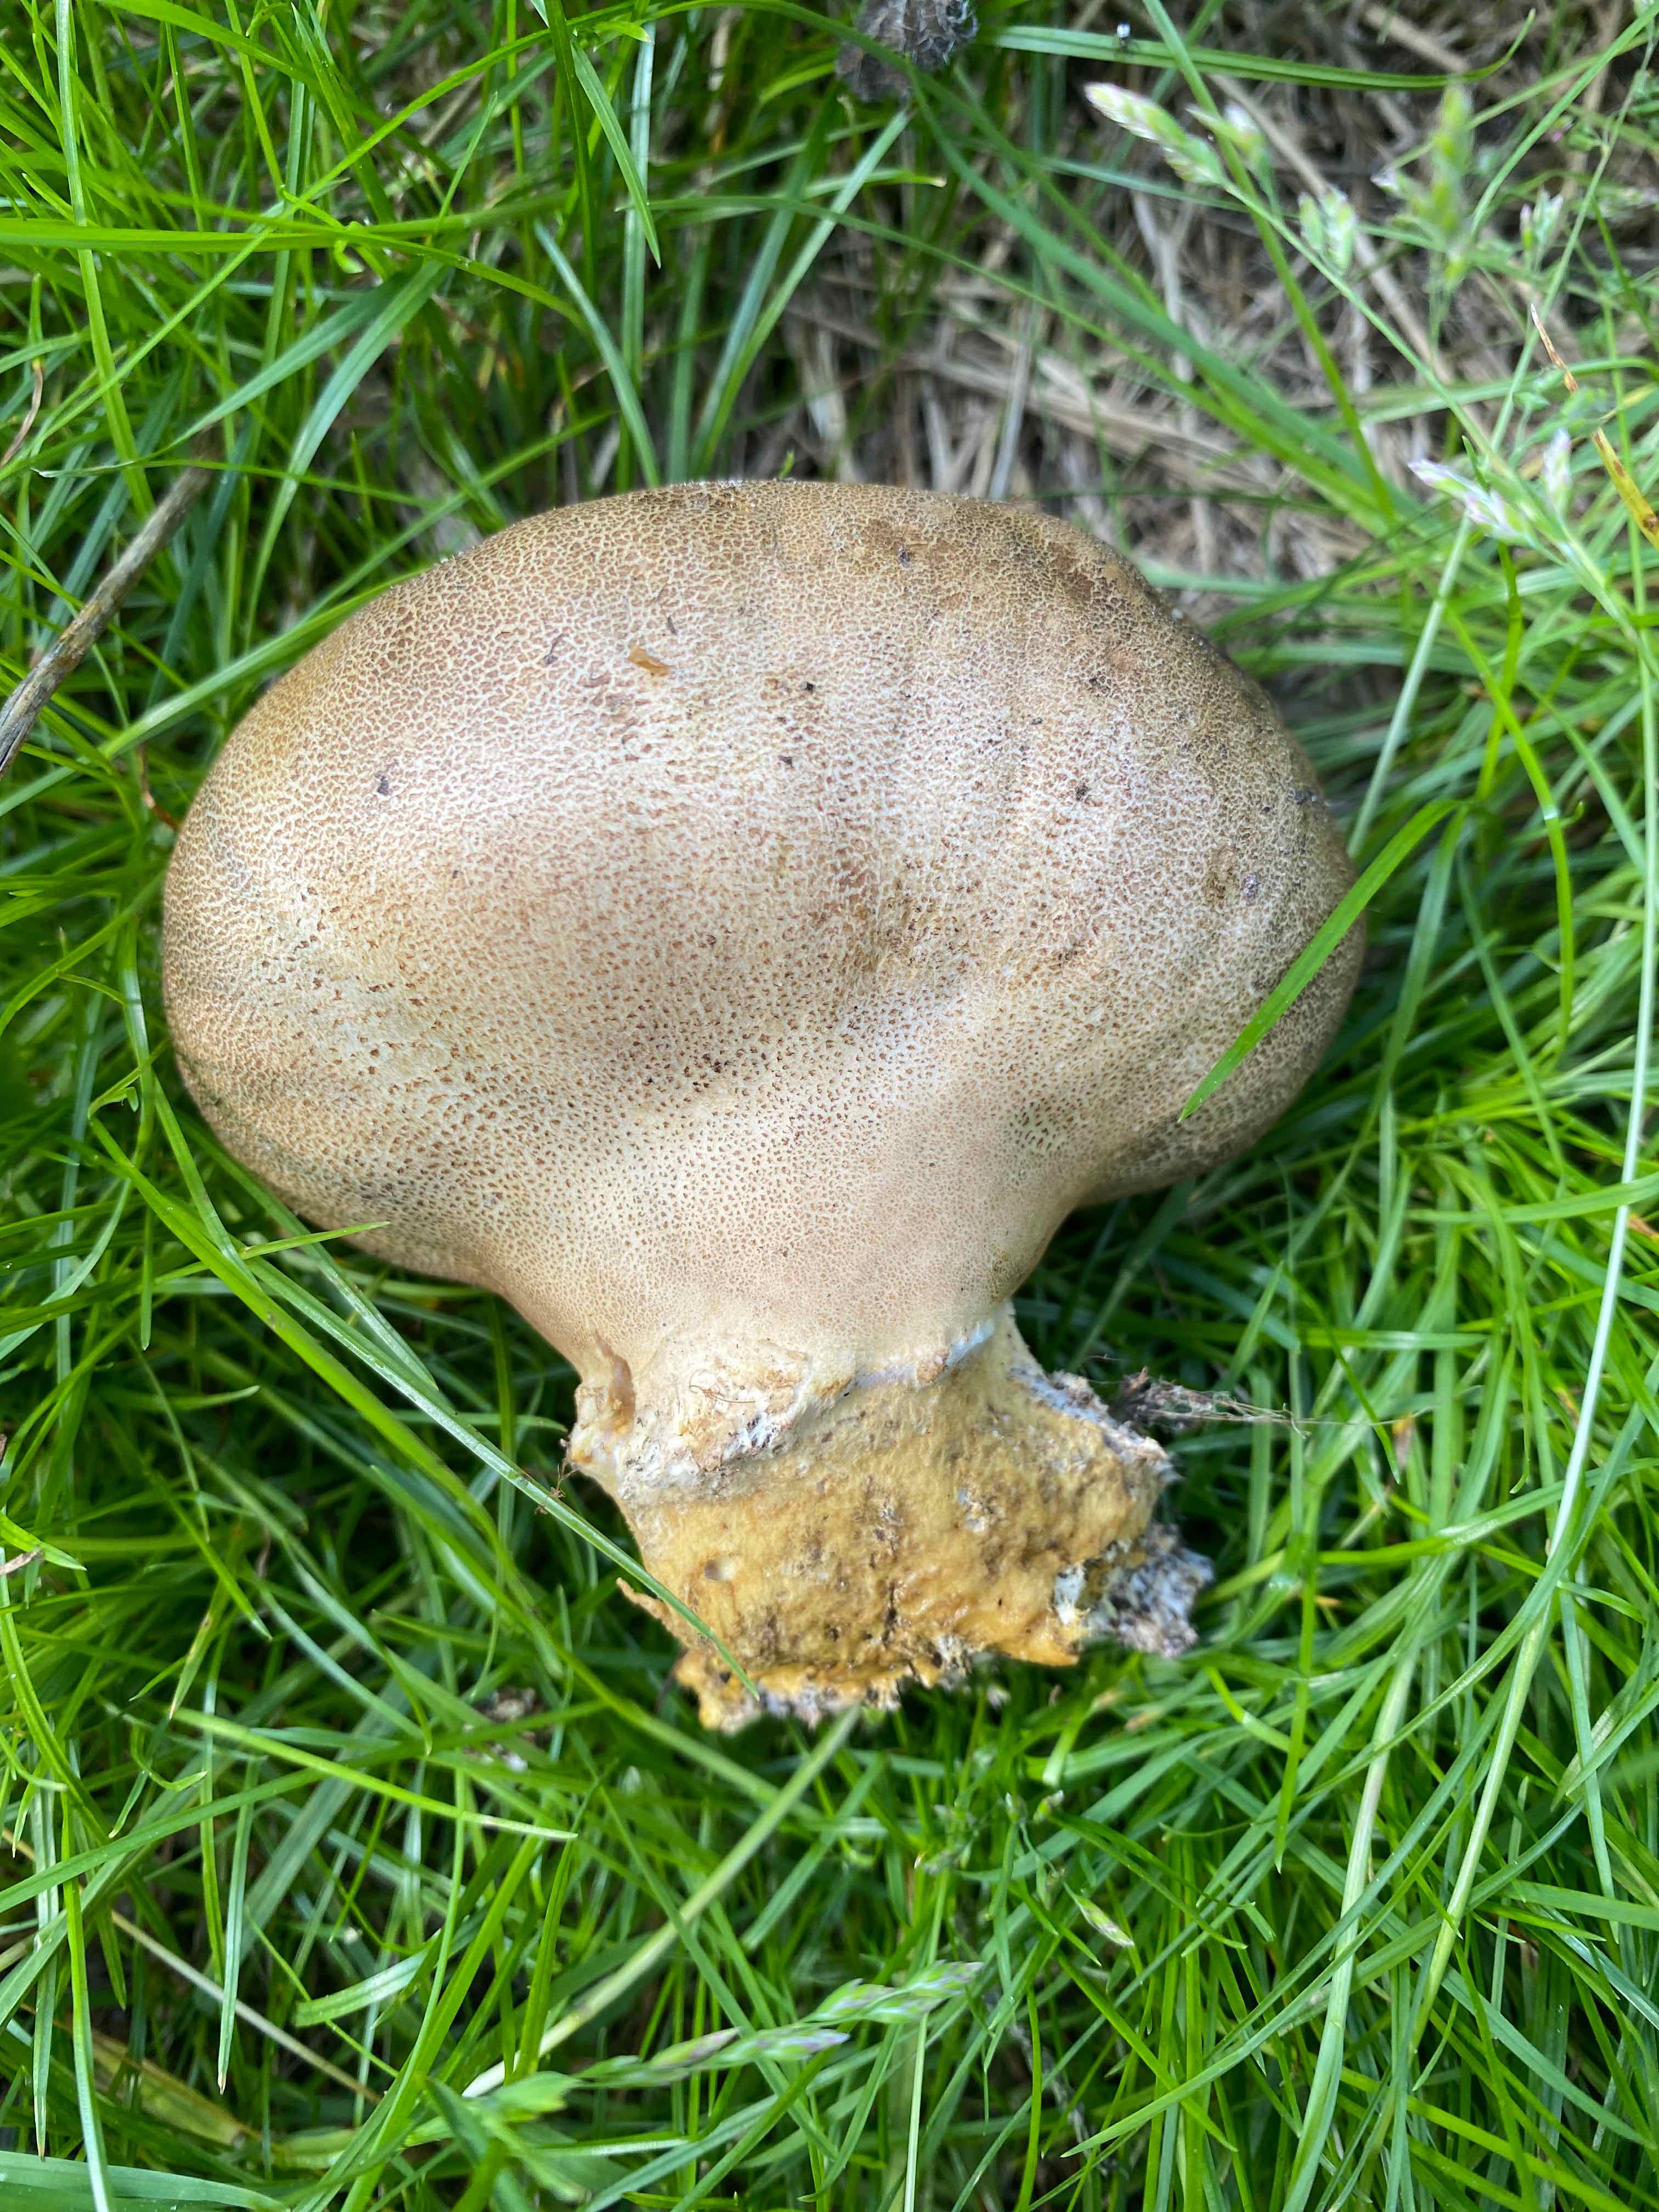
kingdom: Fungi
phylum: Basidiomycota
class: Agaricomycetes
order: Boletales
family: Sclerodermataceae
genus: Scleroderma
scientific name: Scleroderma
